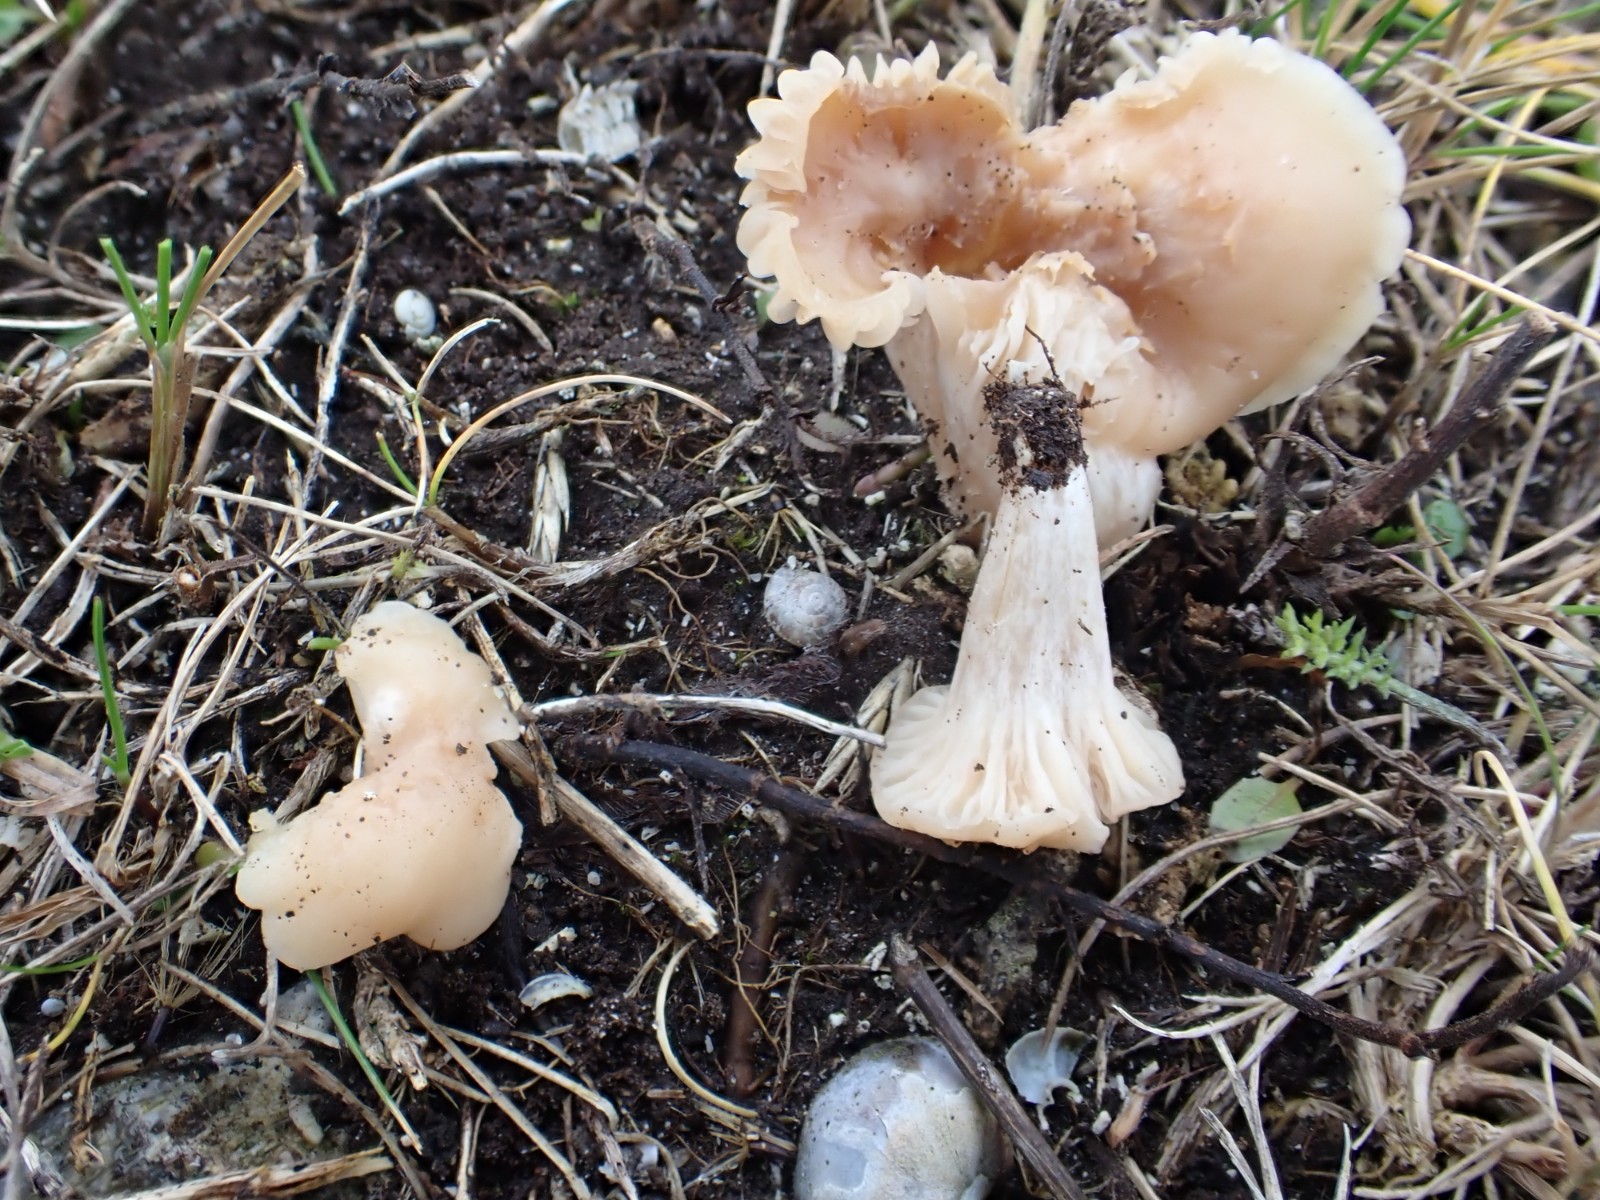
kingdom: Fungi
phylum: Basidiomycota
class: Agaricomycetes
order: Agaricales
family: Hygrophoraceae
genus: Cuphophyllus
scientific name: Cuphophyllus colemannianus
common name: rødbrun vokshat
